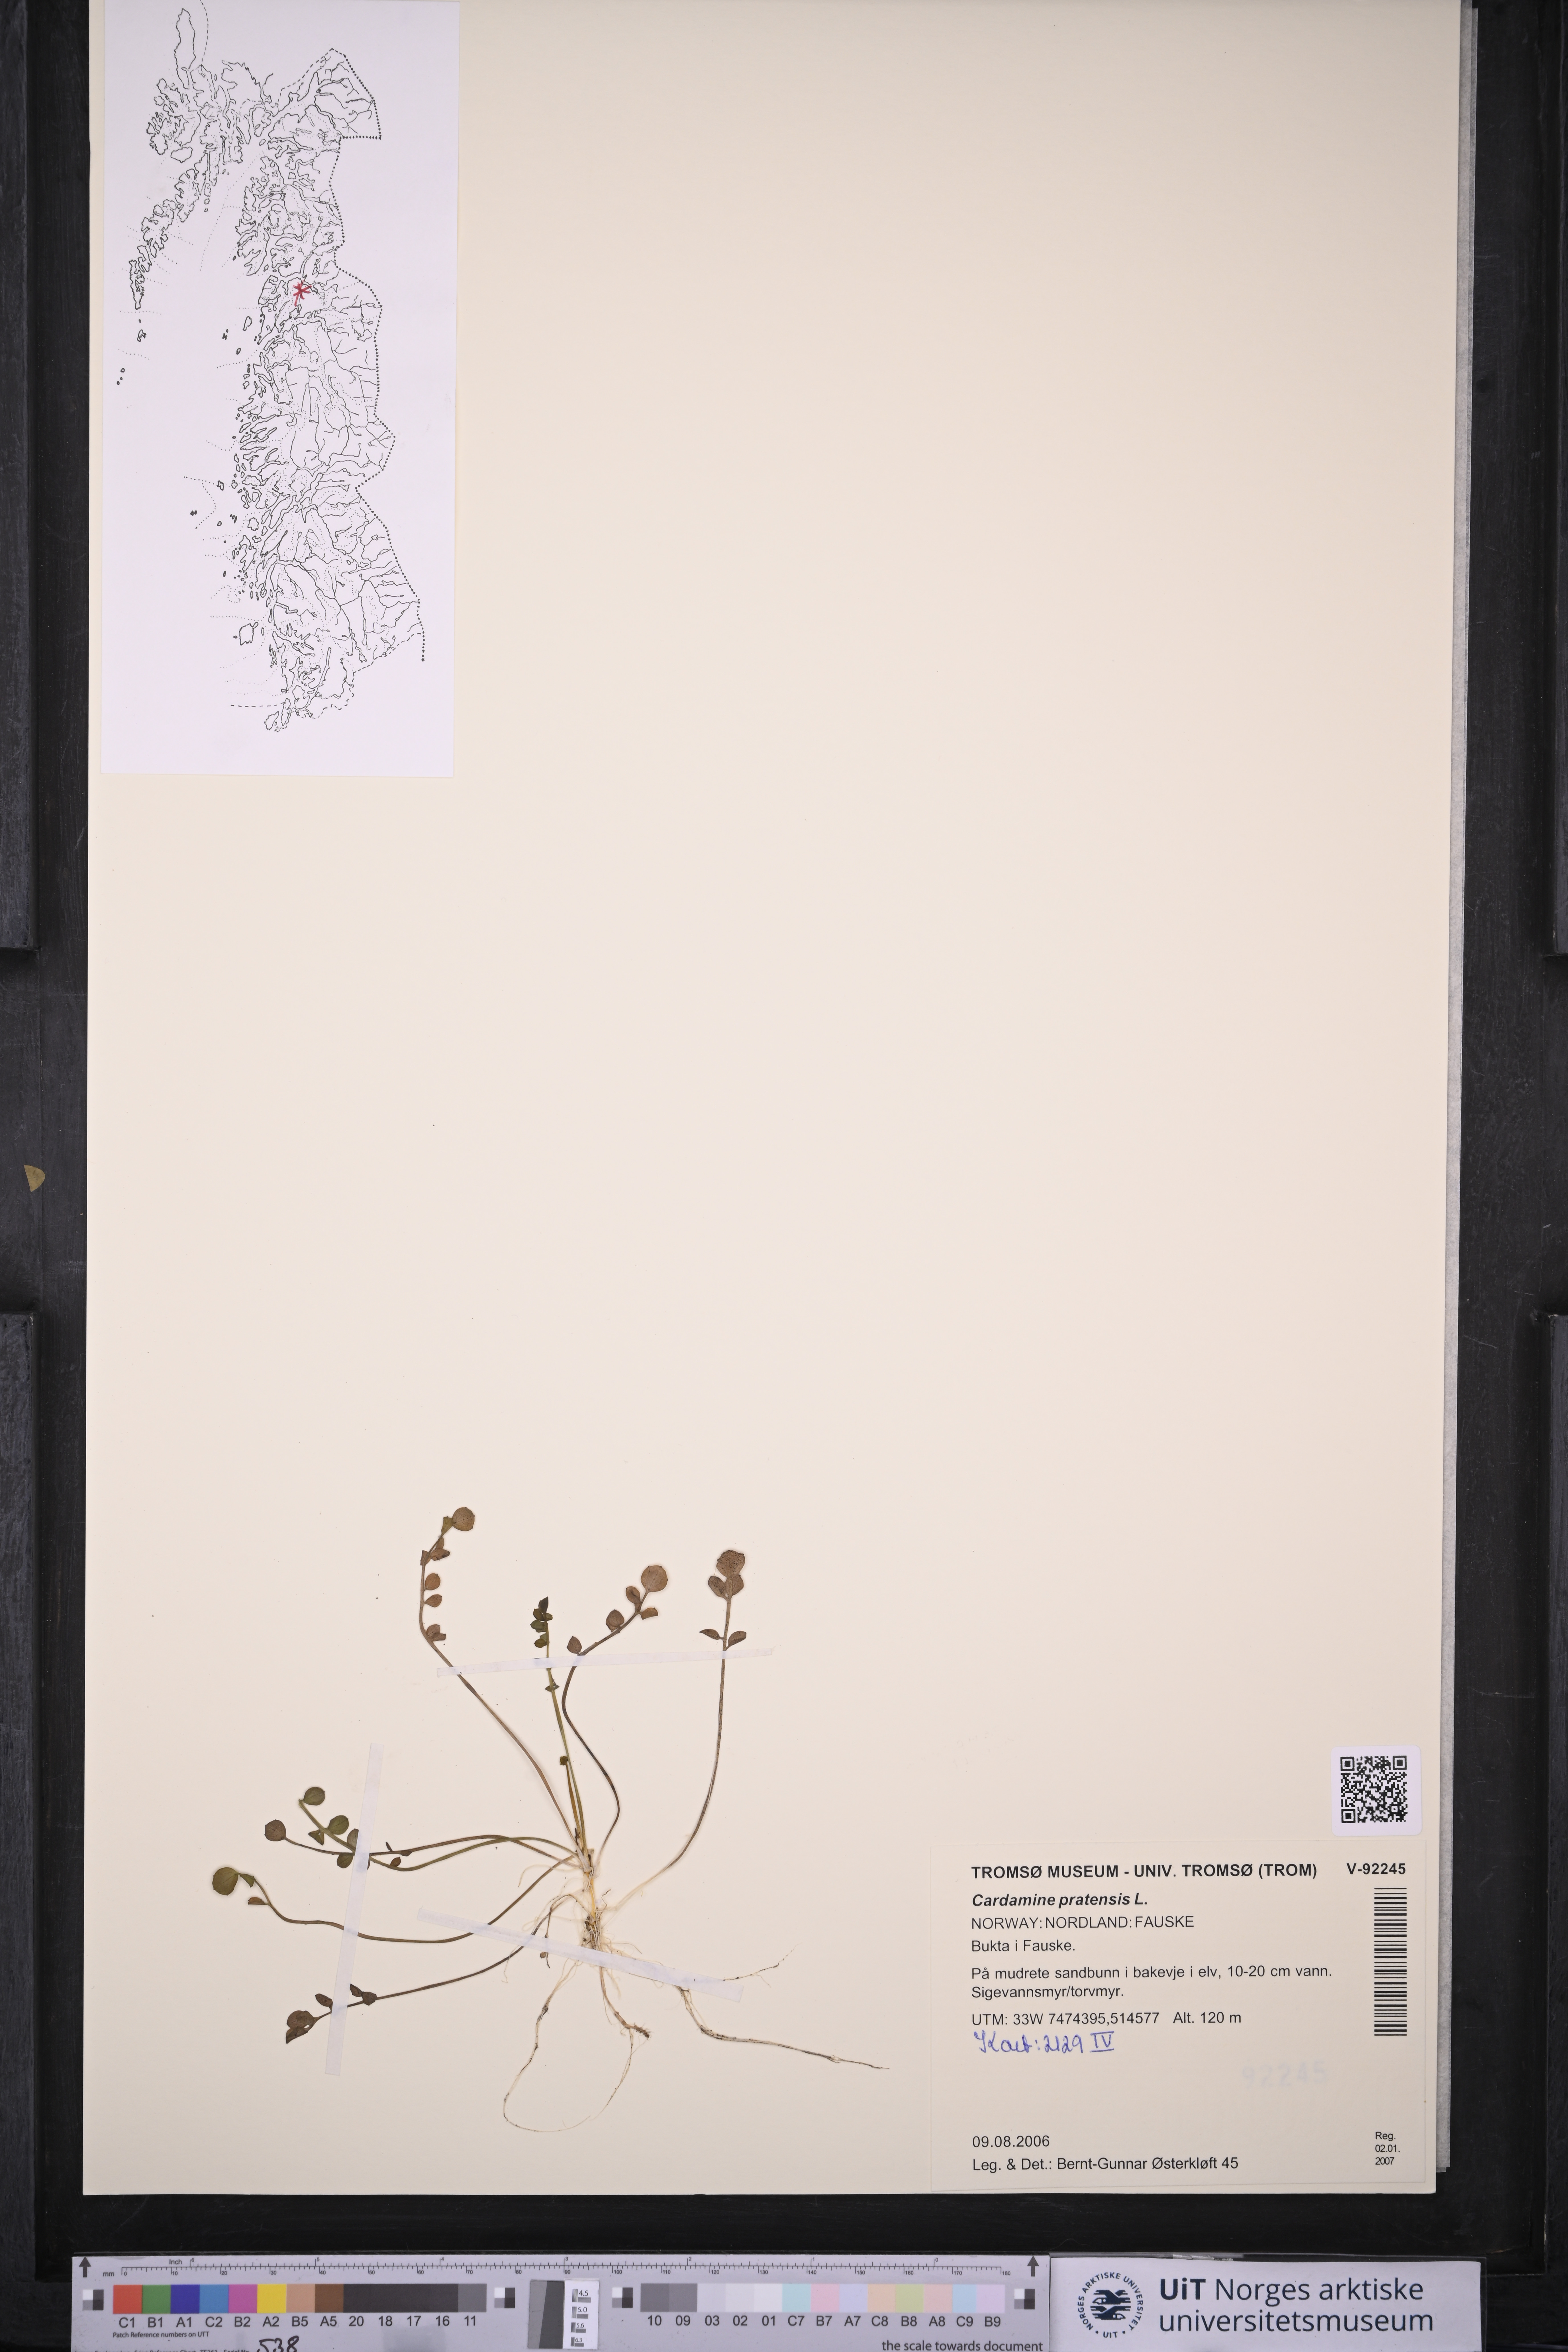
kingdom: Plantae
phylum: Tracheophyta
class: Magnoliopsida
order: Brassicales
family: Brassicaceae
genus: Cardamine
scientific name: Cardamine pratensis
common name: Cuckoo flower
